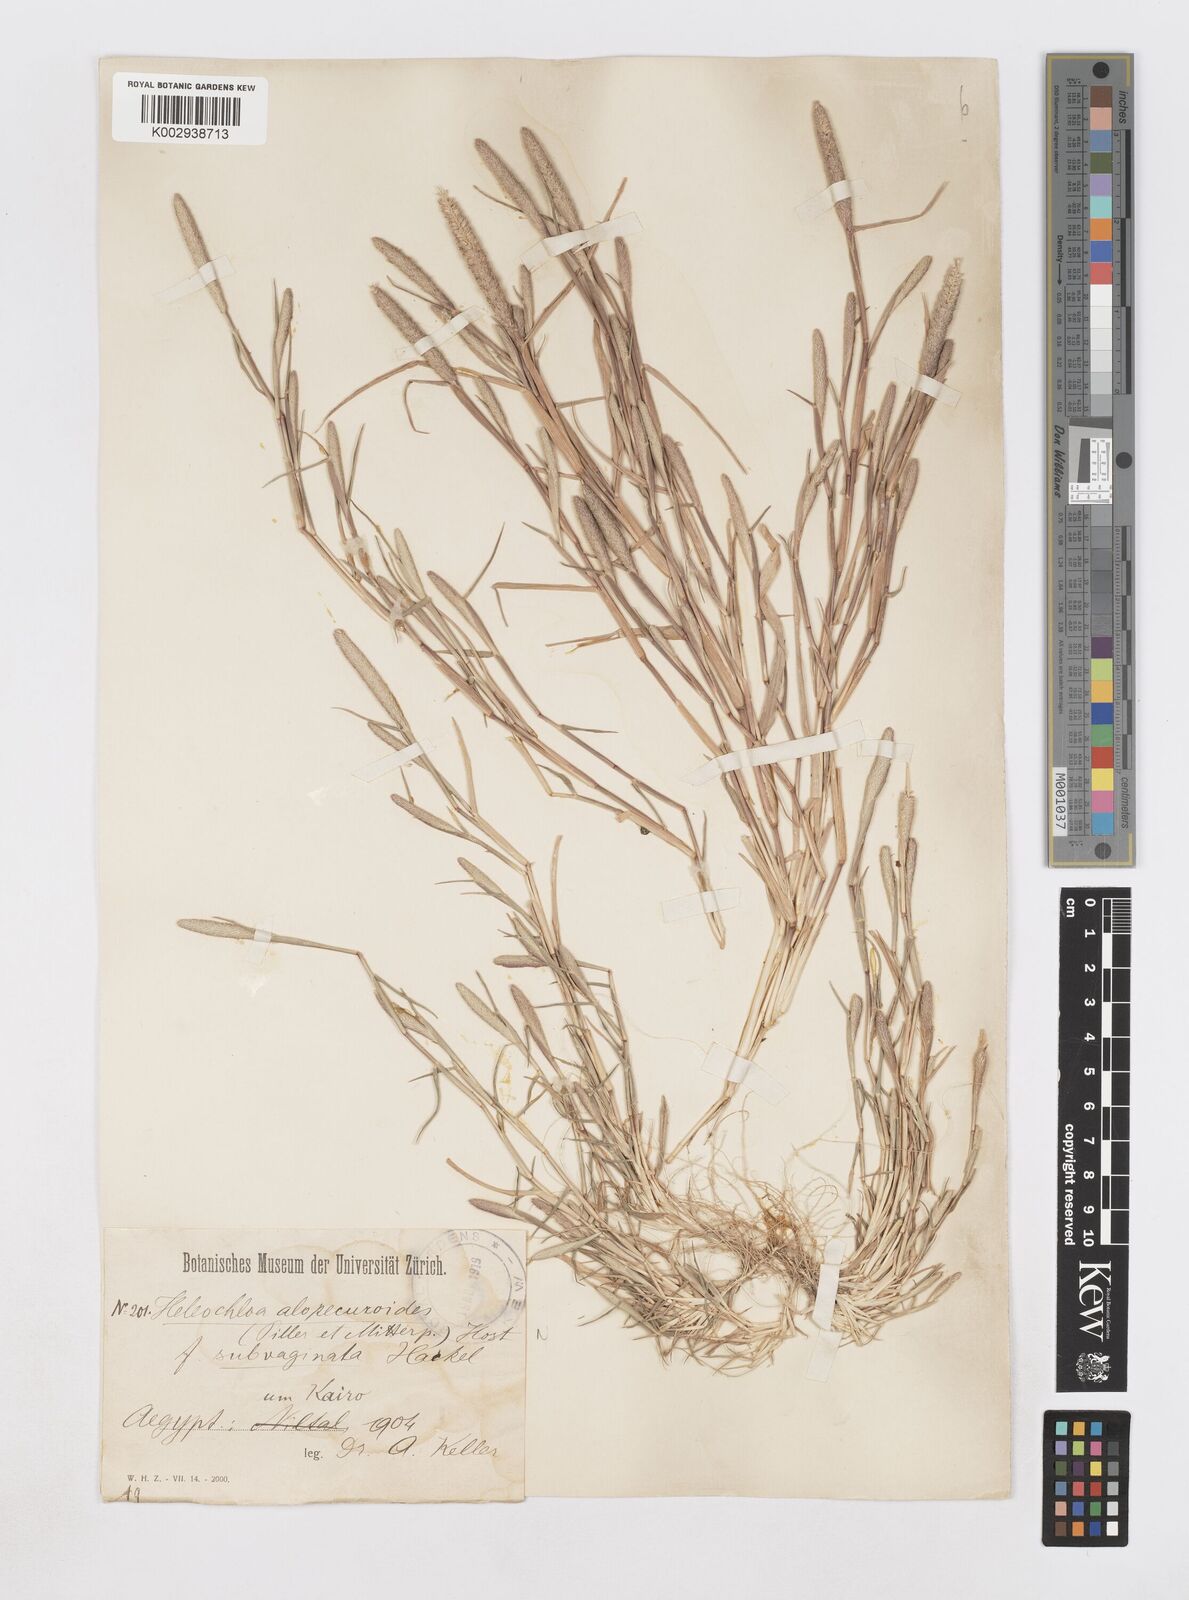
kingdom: Plantae
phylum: Tracheophyta
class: Liliopsida
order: Poales
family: Poaceae
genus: Sporobolus
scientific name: Sporobolus alopecuroides
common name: Foxtail pricklegrass
